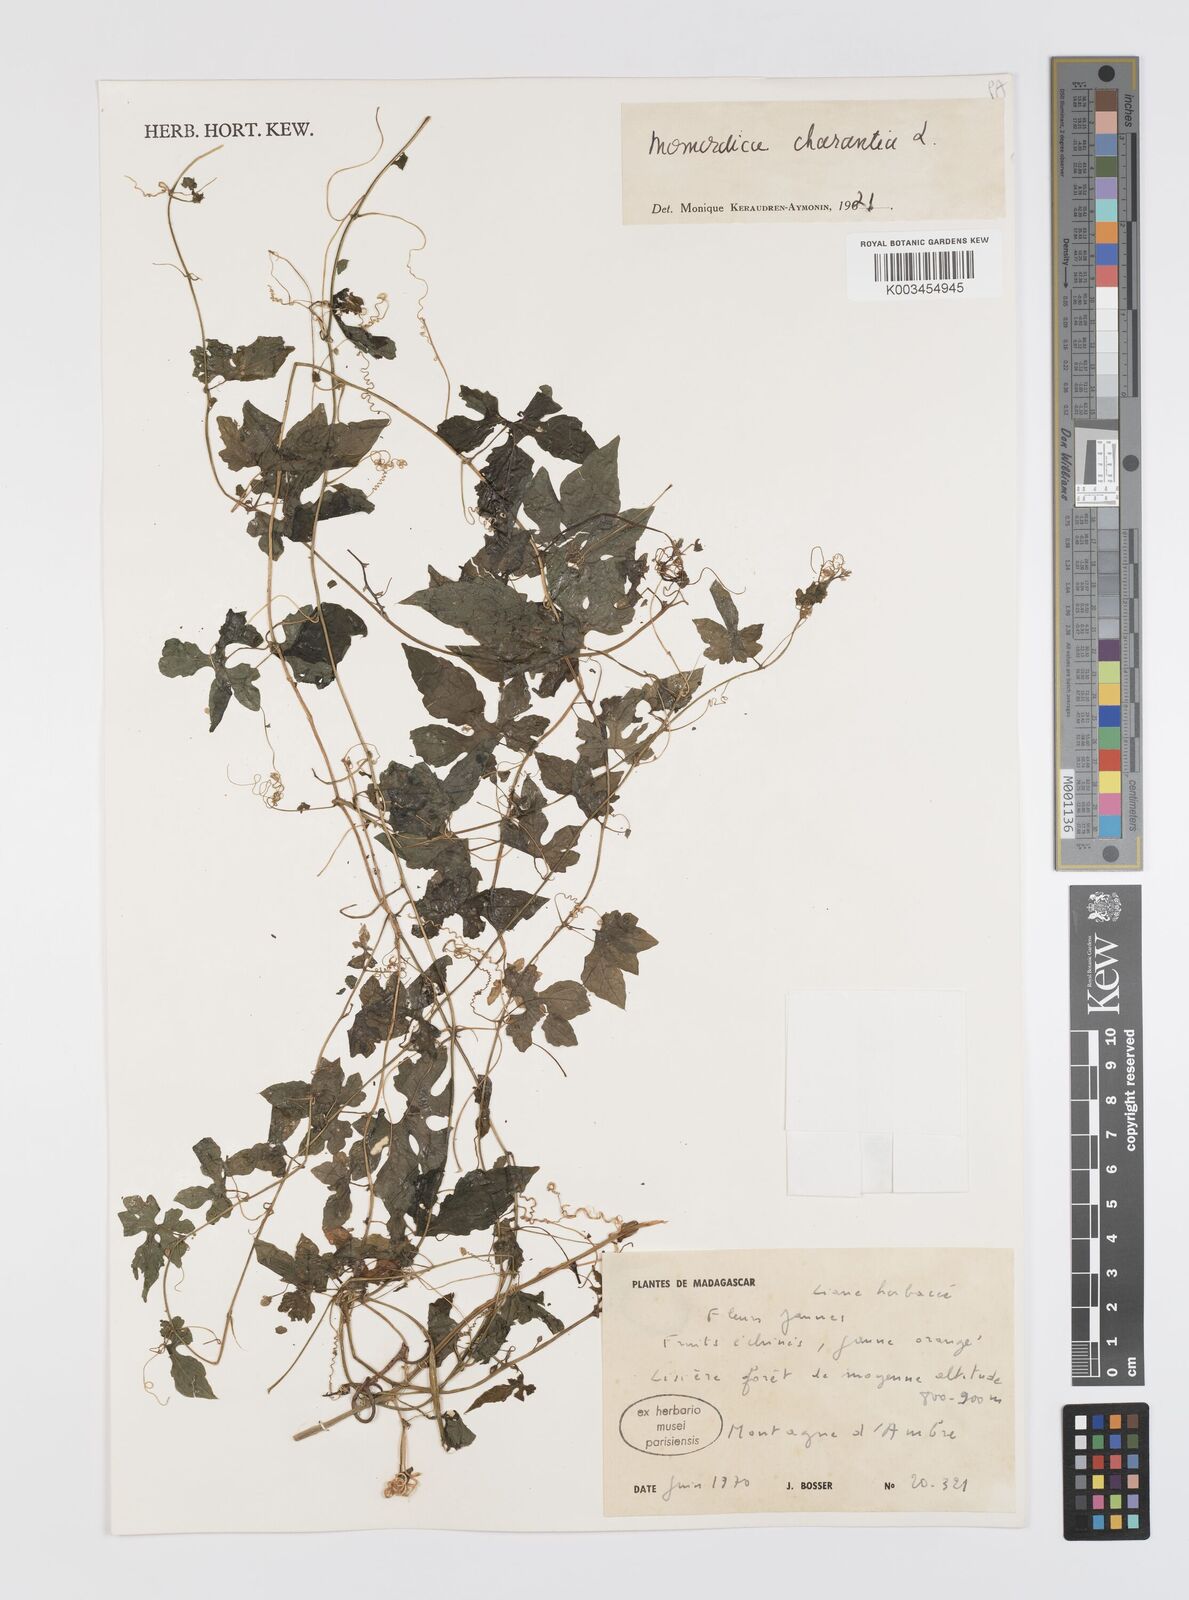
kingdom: Plantae
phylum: Tracheophyta
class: Magnoliopsida
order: Cucurbitales
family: Cucurbitaceae
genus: Momordica
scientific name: Momordica charantia
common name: Balsampear
